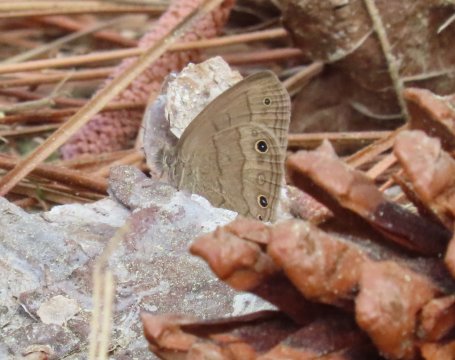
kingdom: Animalia
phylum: Arthropoda
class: Insecta
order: Lepidoptera
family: Nymphalidae
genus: Hermeuptychia
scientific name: Hermeuptychia hermes
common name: Carolina Satyr
